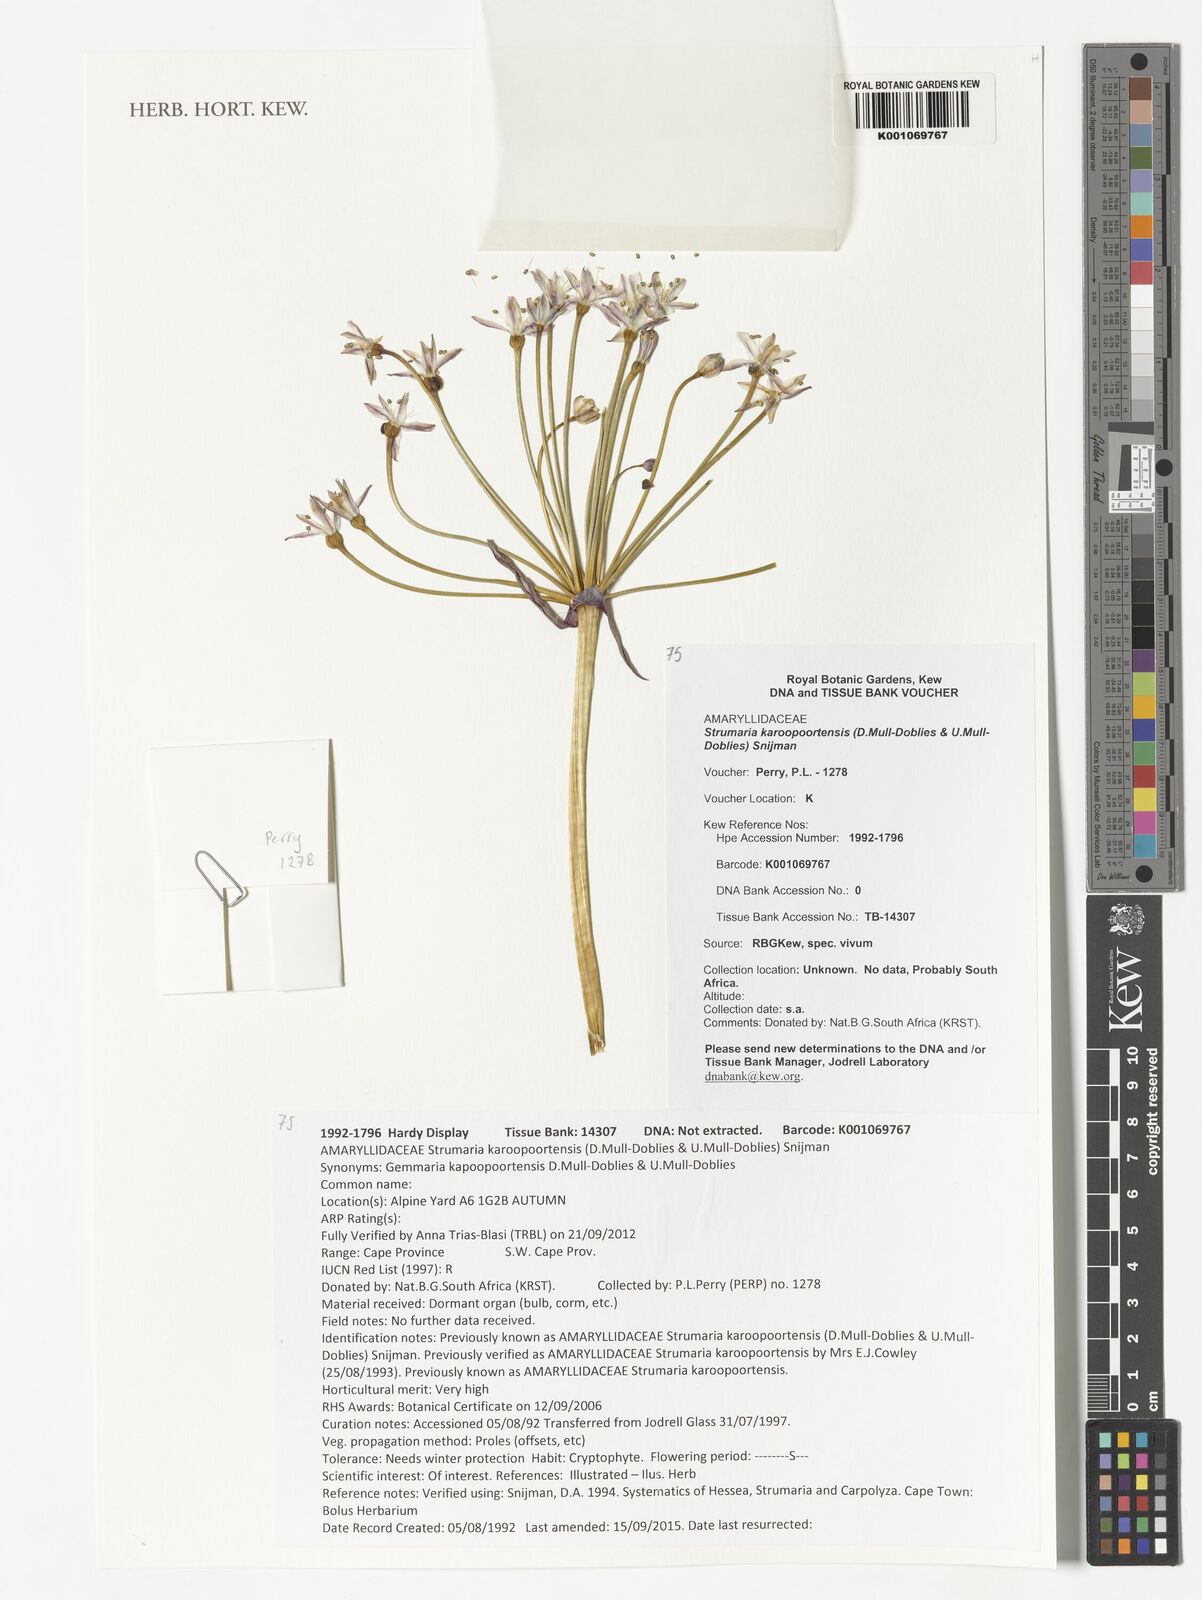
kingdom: Plantae
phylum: Tracheophyta
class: Liliopsida
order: Asparagales
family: Amaryllidaceae
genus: Strumaria
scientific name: Strumaria karoopoortensis
